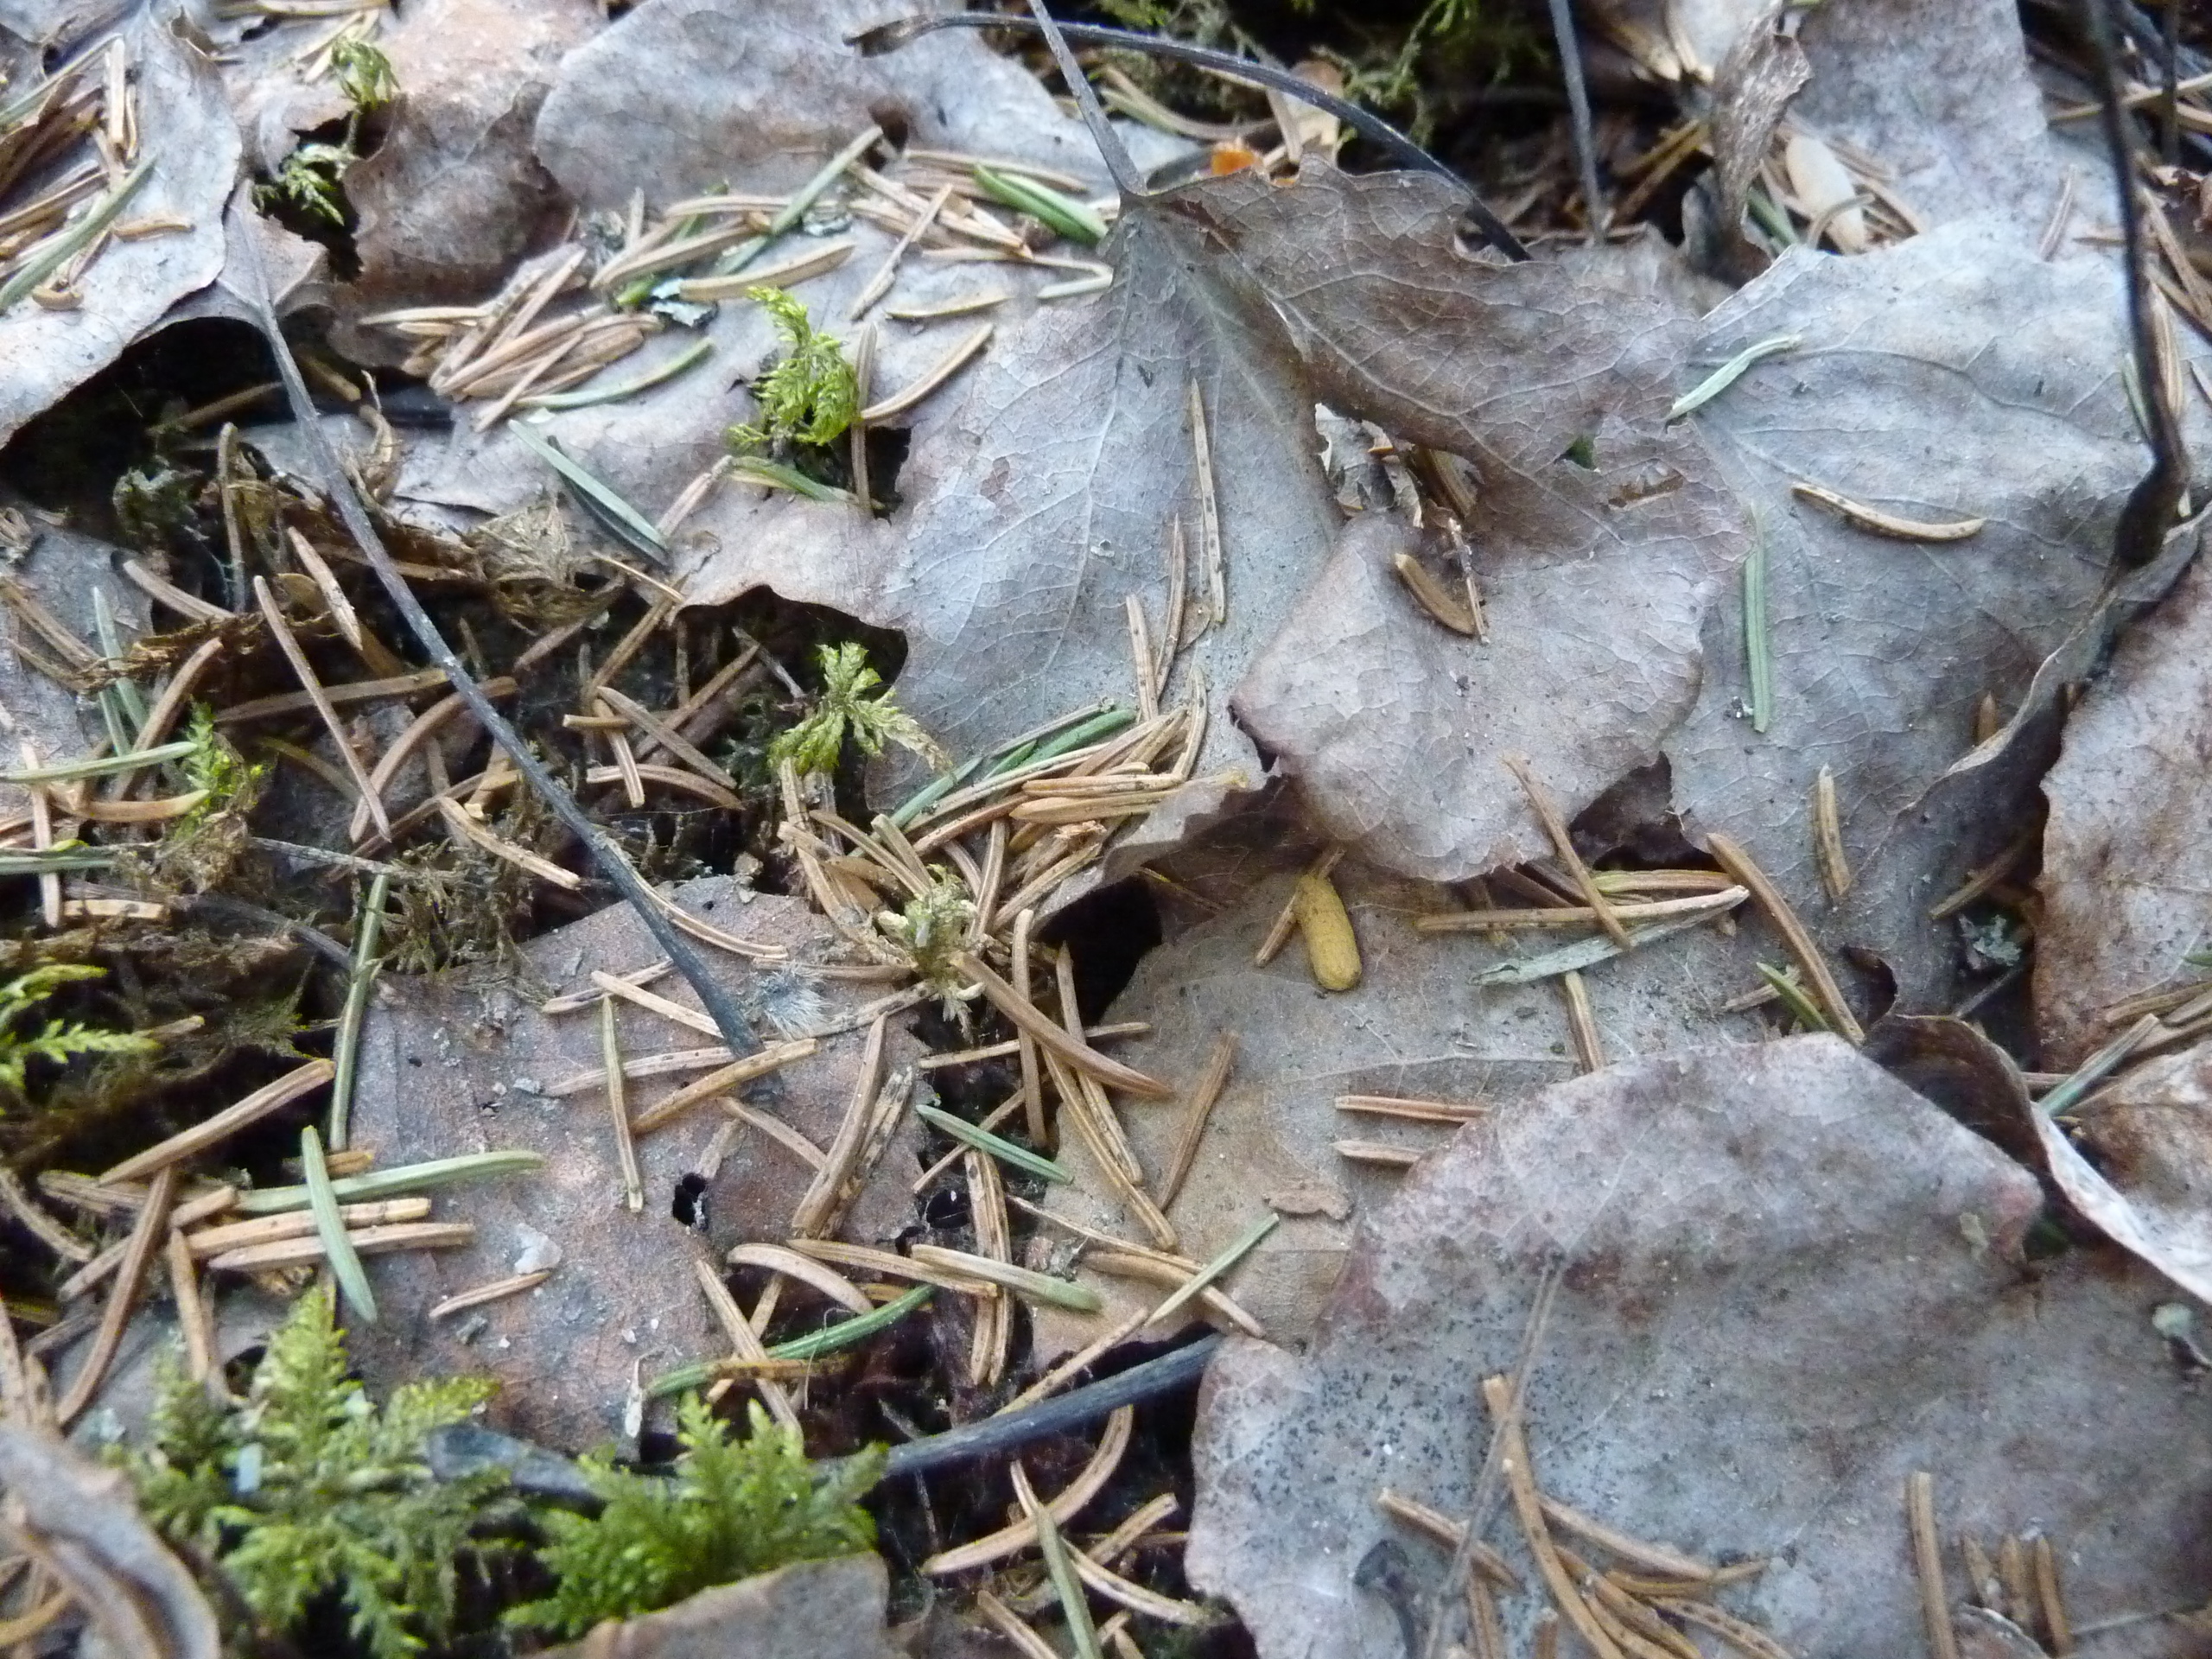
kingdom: Animalia
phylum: Chordata
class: Mammalia
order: Rodentia
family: Sciuridae
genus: Pteromys
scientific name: Pteromys volans
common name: Siberian flying squirrel
